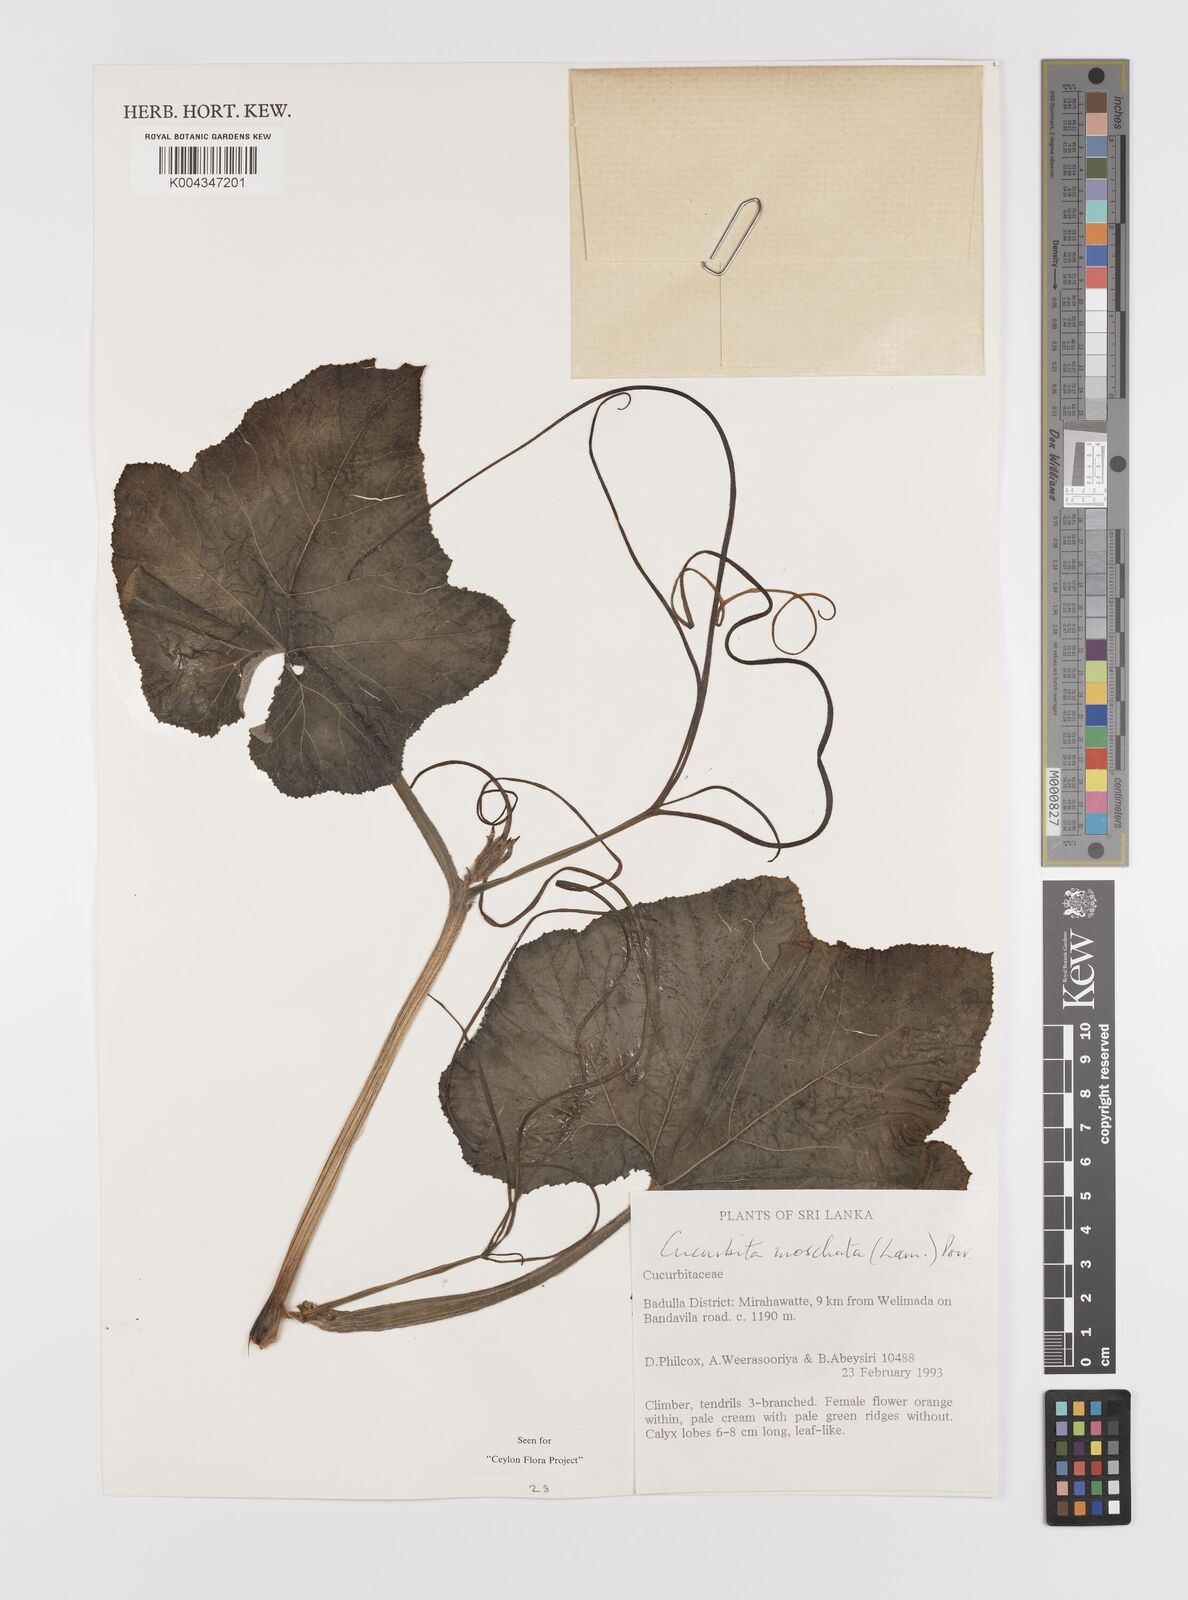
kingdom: Plantae
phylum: Tracheophyta
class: Magnoliopsida
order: Cucurbitales
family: Cucurbitaceae
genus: Cucurbita
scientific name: Cucurbita moschata
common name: Squash / pumpkin
